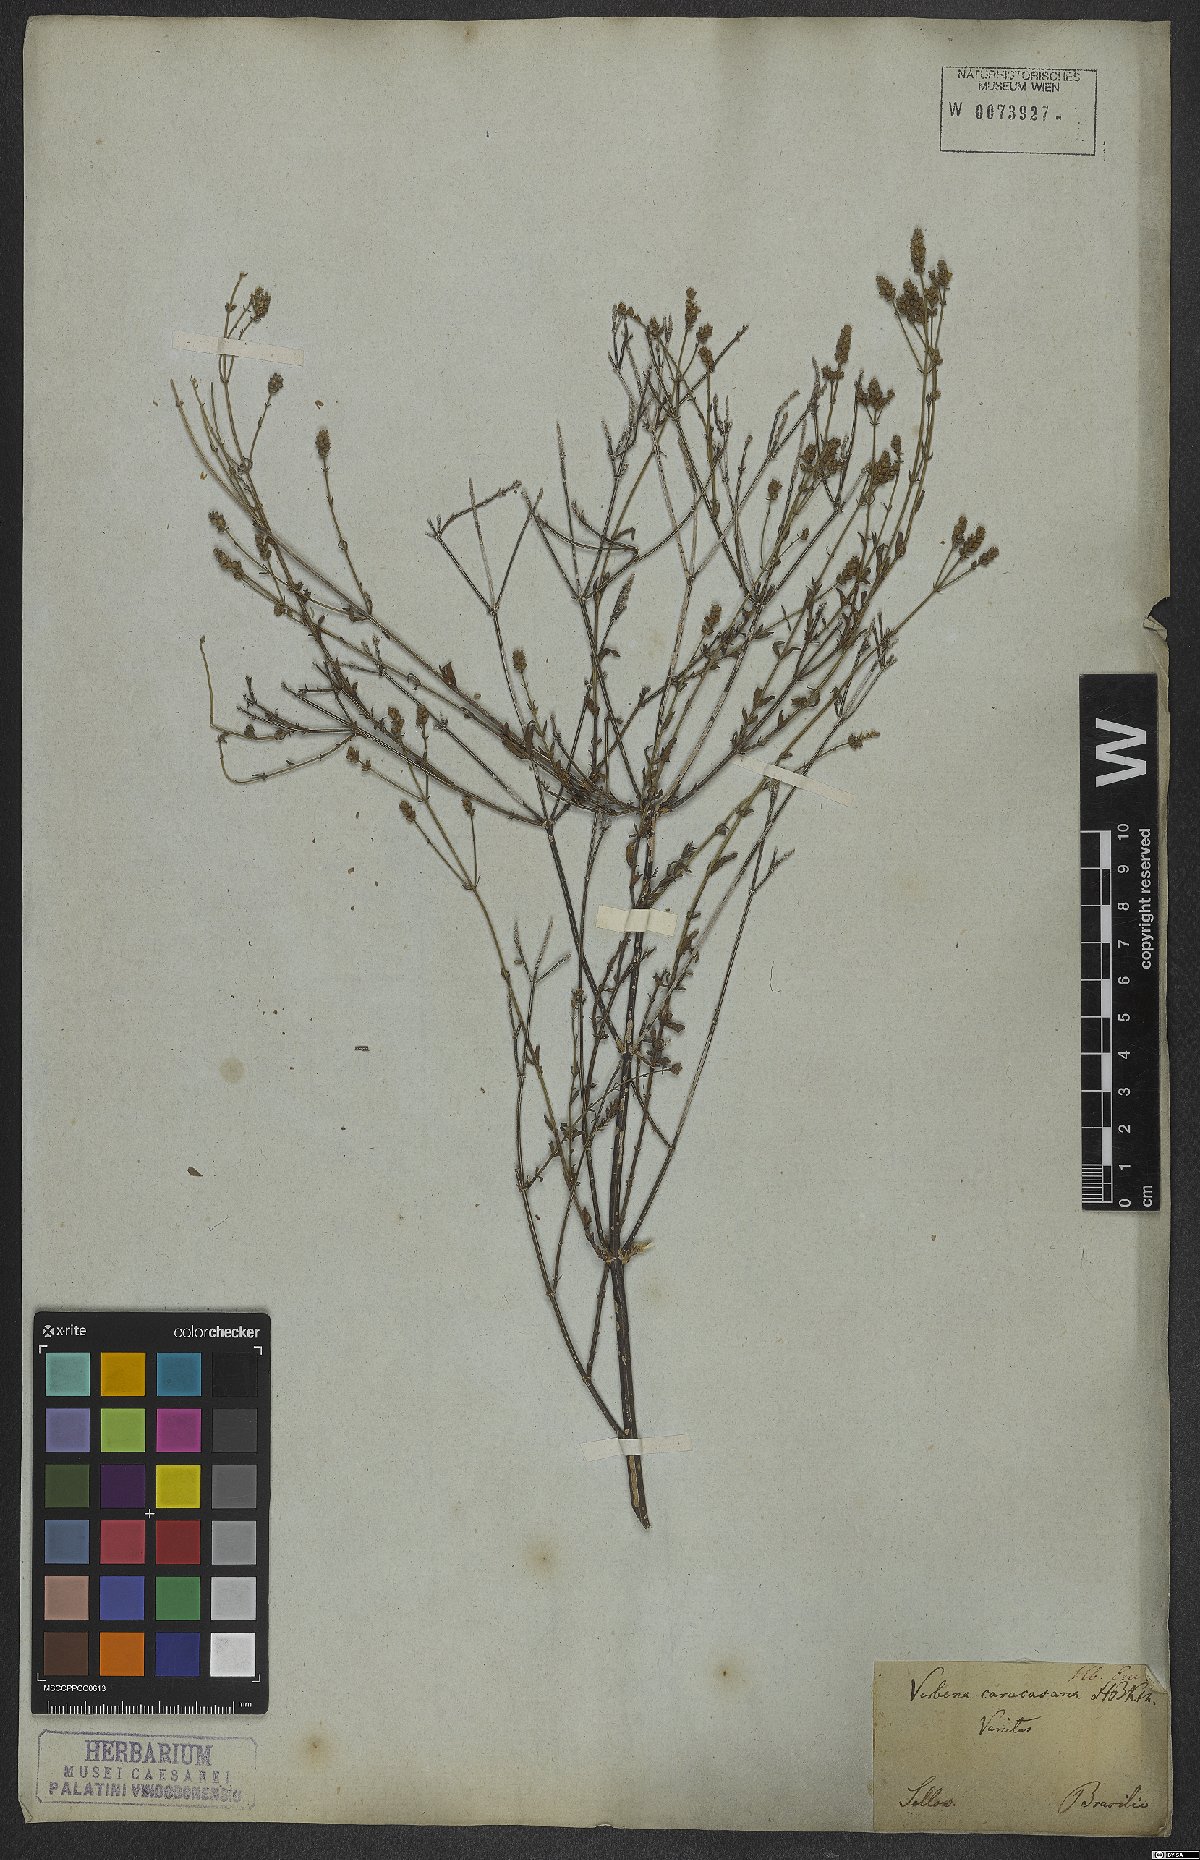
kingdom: Plantae
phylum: Tracheophyta
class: Magnoliopsida
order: Lamiales
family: Verbenaceae
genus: Verbena
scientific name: Verbena litoralis
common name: Seashore vervain
